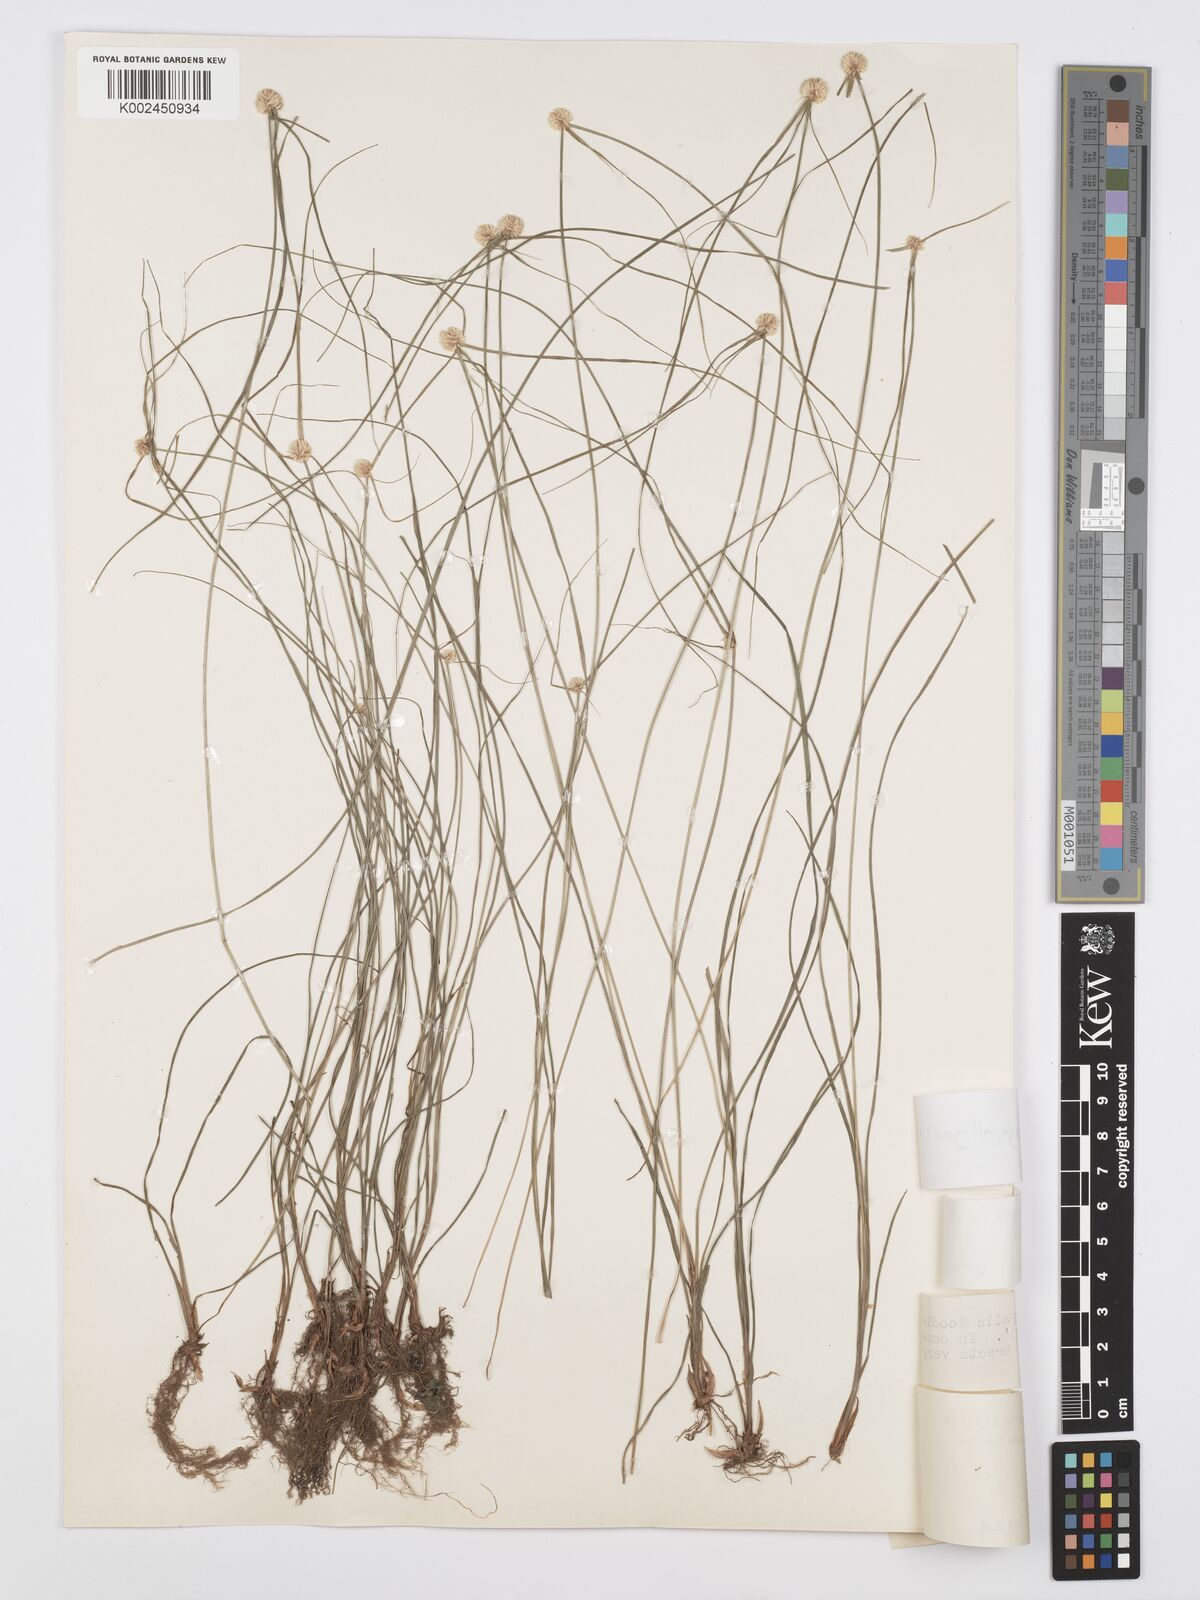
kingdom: Plantae
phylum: Tracheophyta
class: Liliopsida
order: Poales
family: Cyperaceae
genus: Cyperus
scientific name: Cyperus albogracilis
